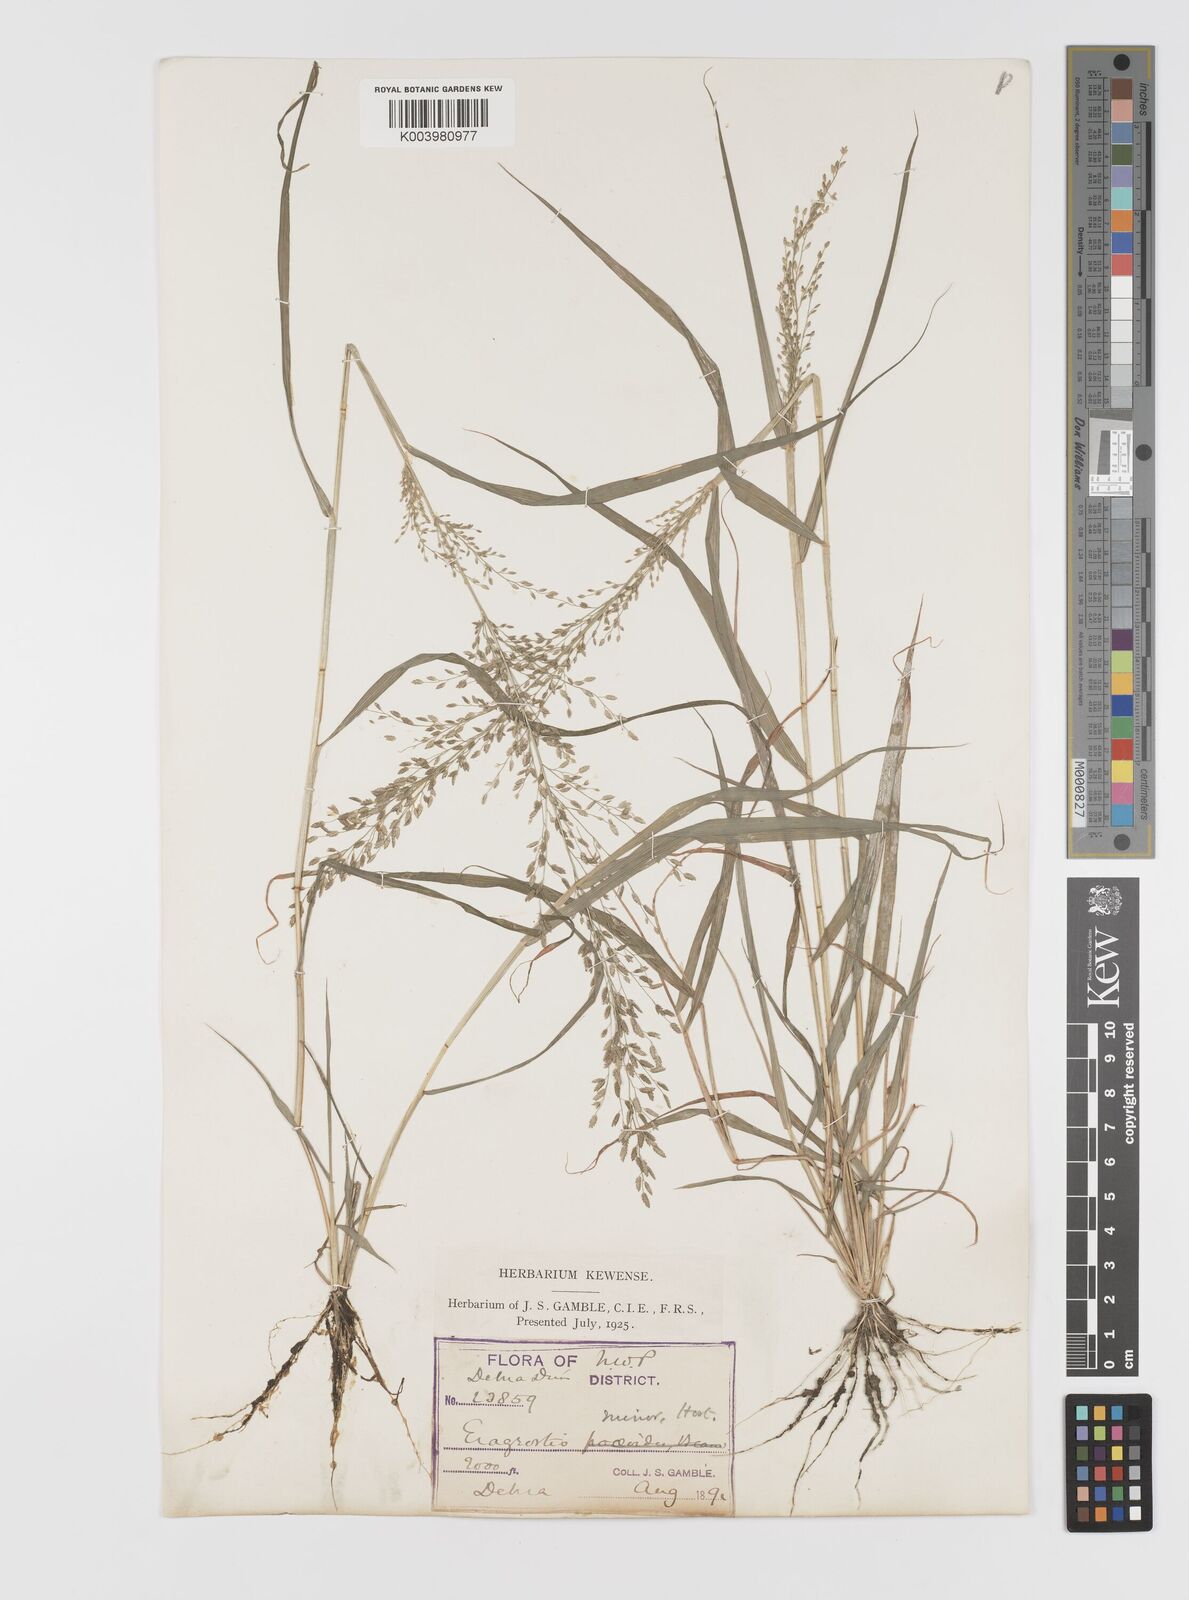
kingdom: Plantae
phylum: Tracheophyta
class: Liliopsida
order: Poales
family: Poaceae
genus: Eragrostis
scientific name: Eragrostis minor
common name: Small love-grass
